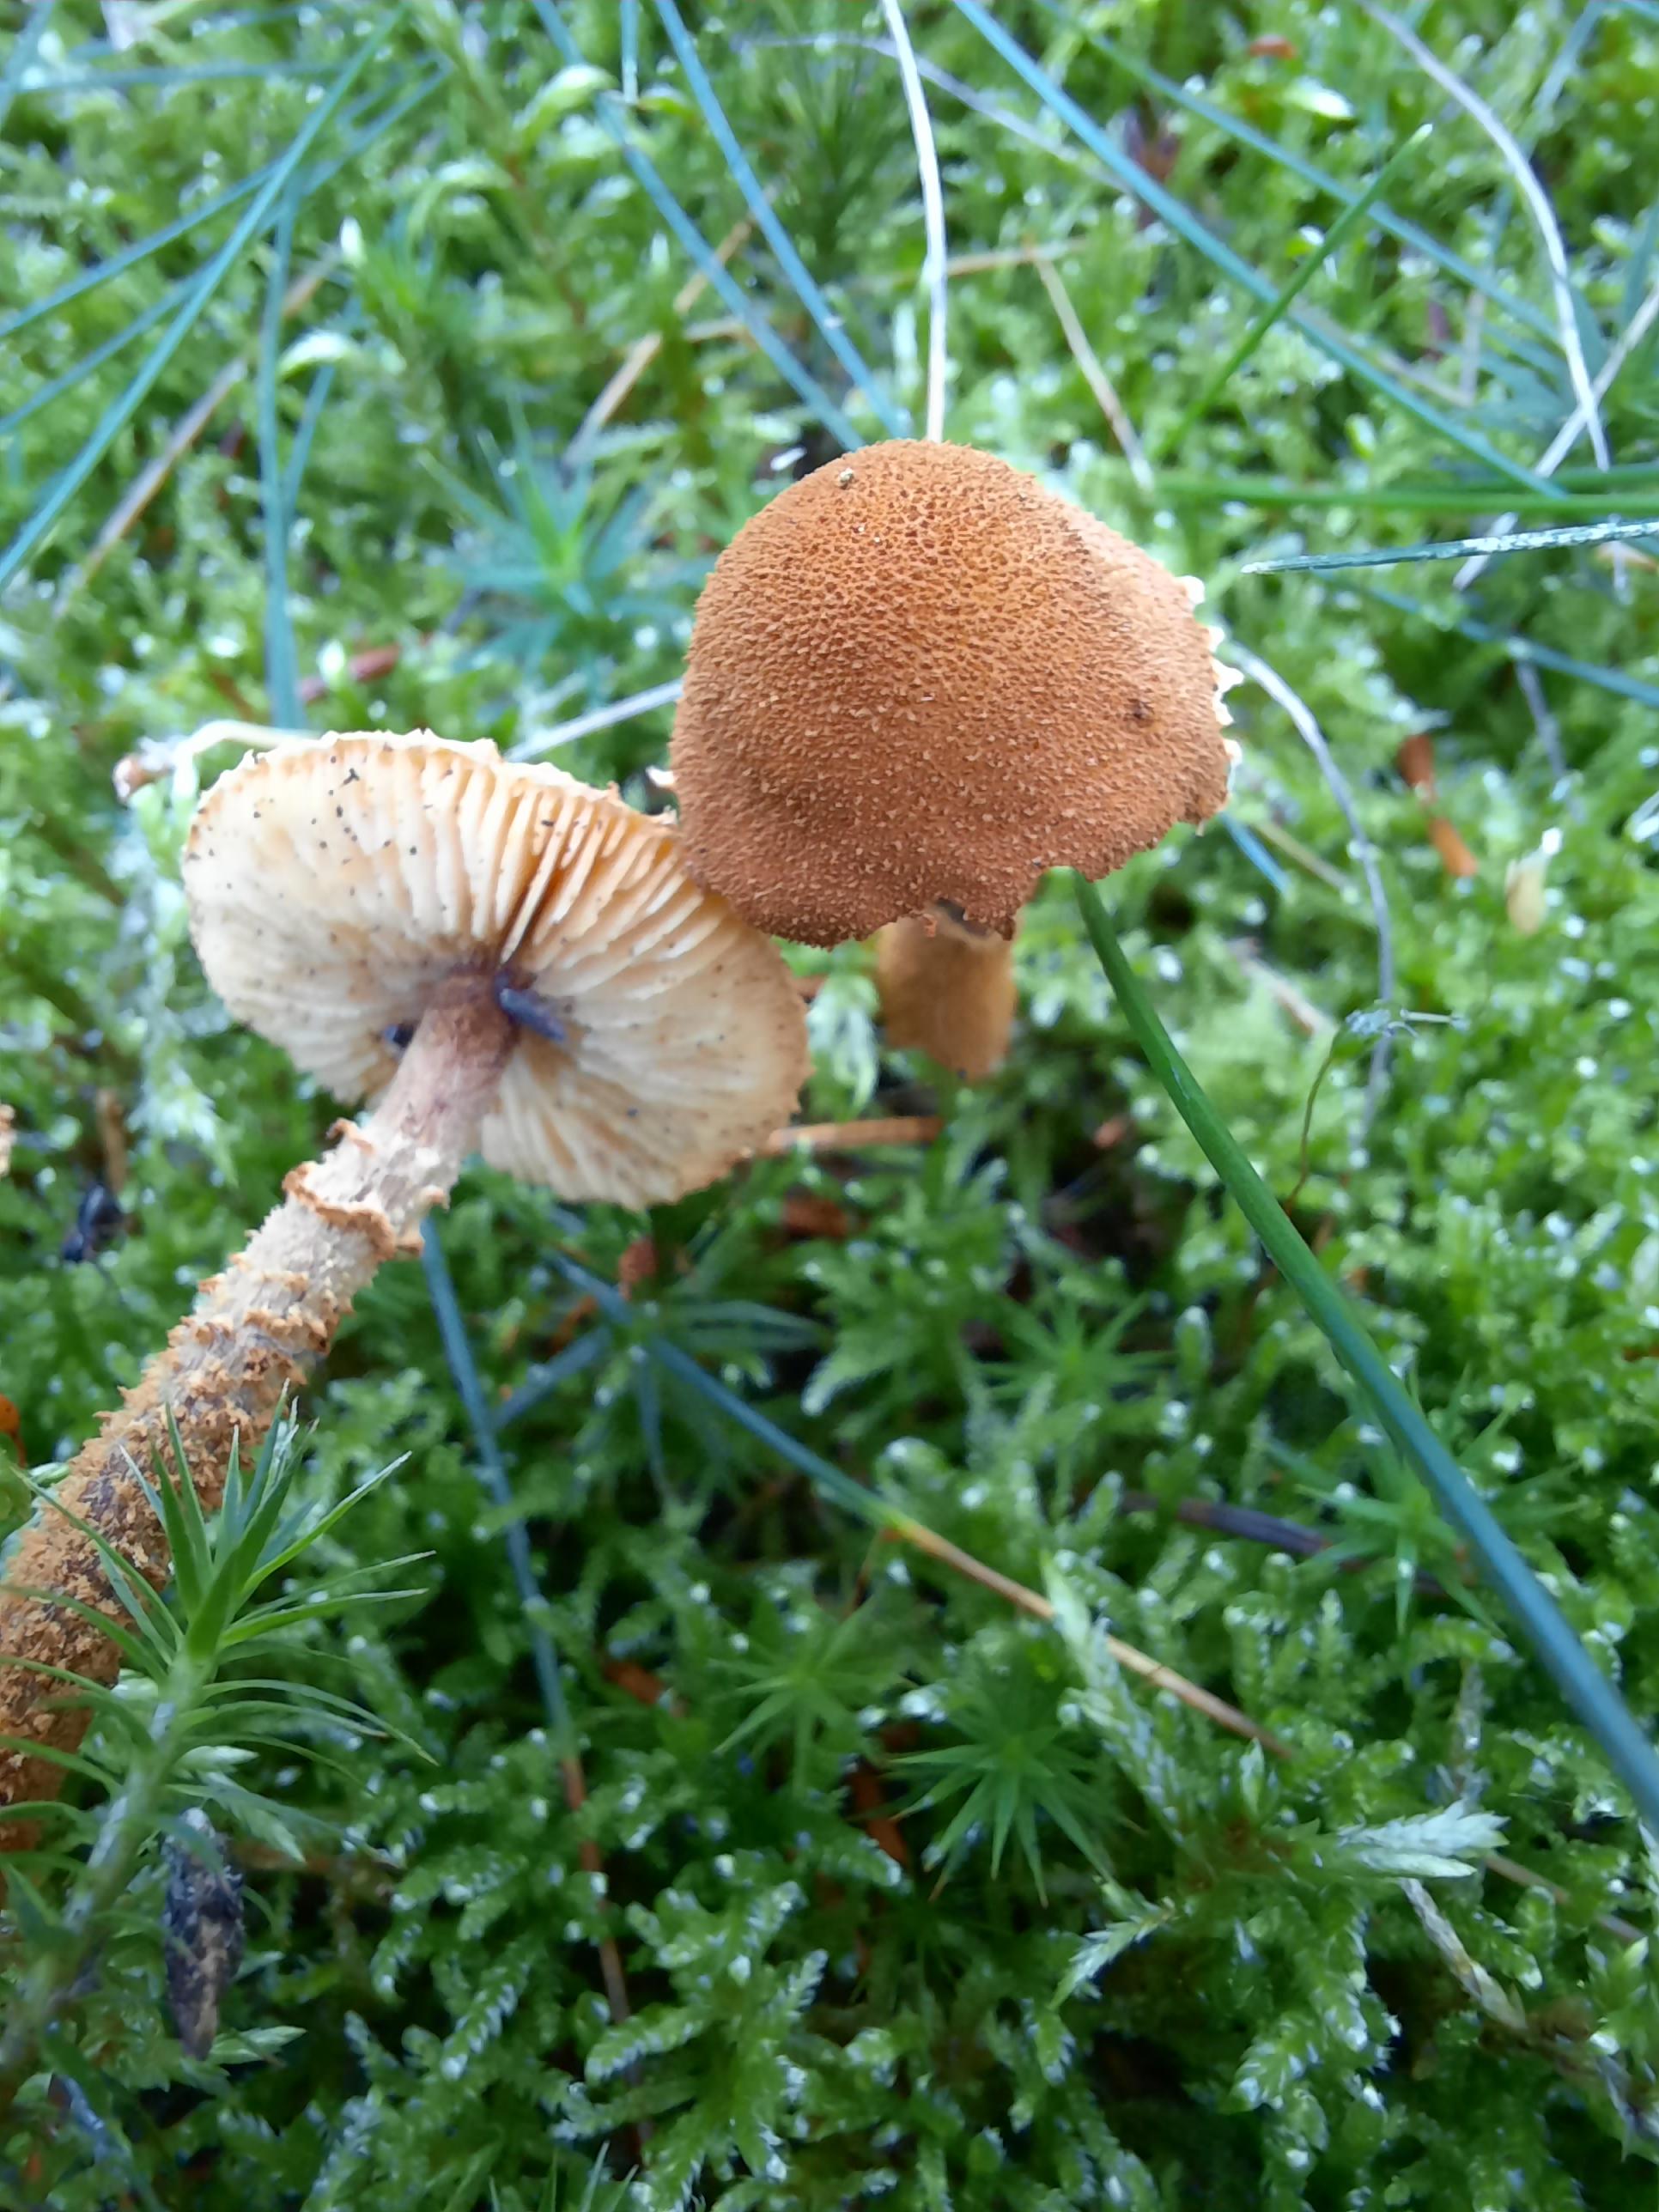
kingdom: Fungi
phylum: Basidiomycota
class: Agaricomycetes
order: Agaricales
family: Tricholomataceae
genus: Cystoderma
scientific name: Cystoderma jasonis
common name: gulkødet grynhat
